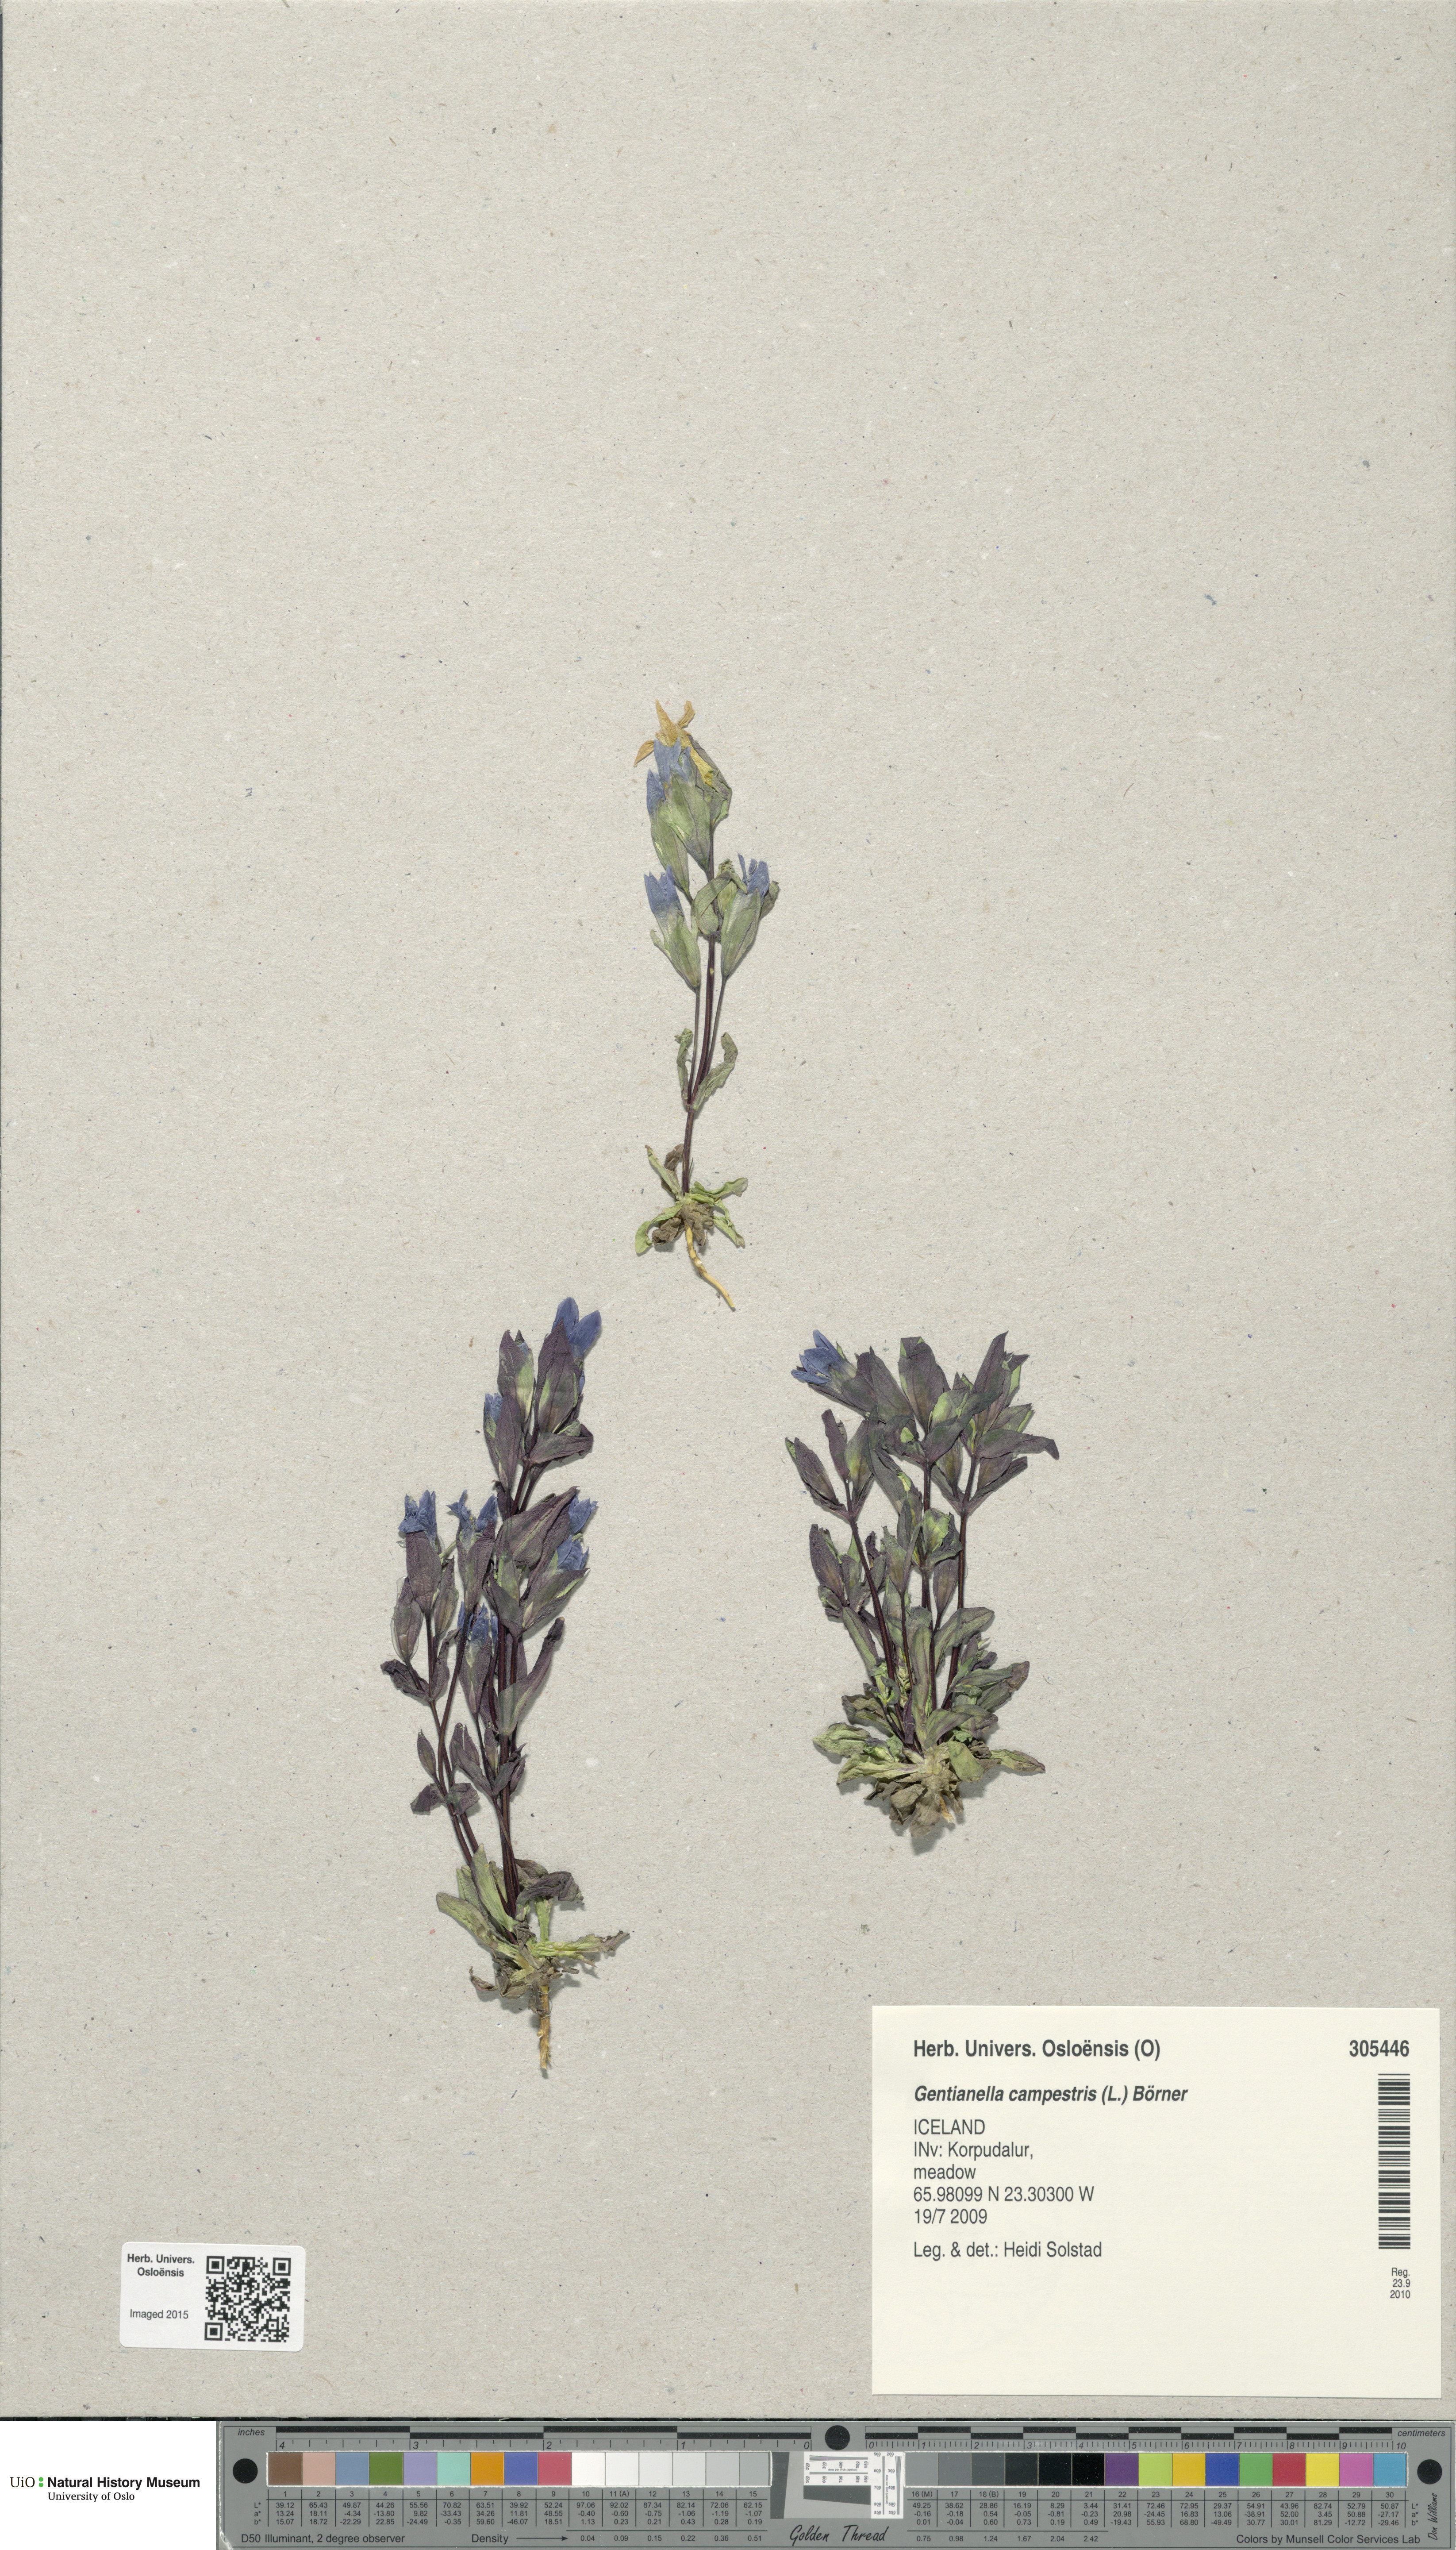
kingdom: Plantae
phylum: Tracheophyta
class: Magnoliopsida
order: Gentianales
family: Gentianaceae
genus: Gentianella
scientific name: Gentianella campestris
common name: Field gentian
